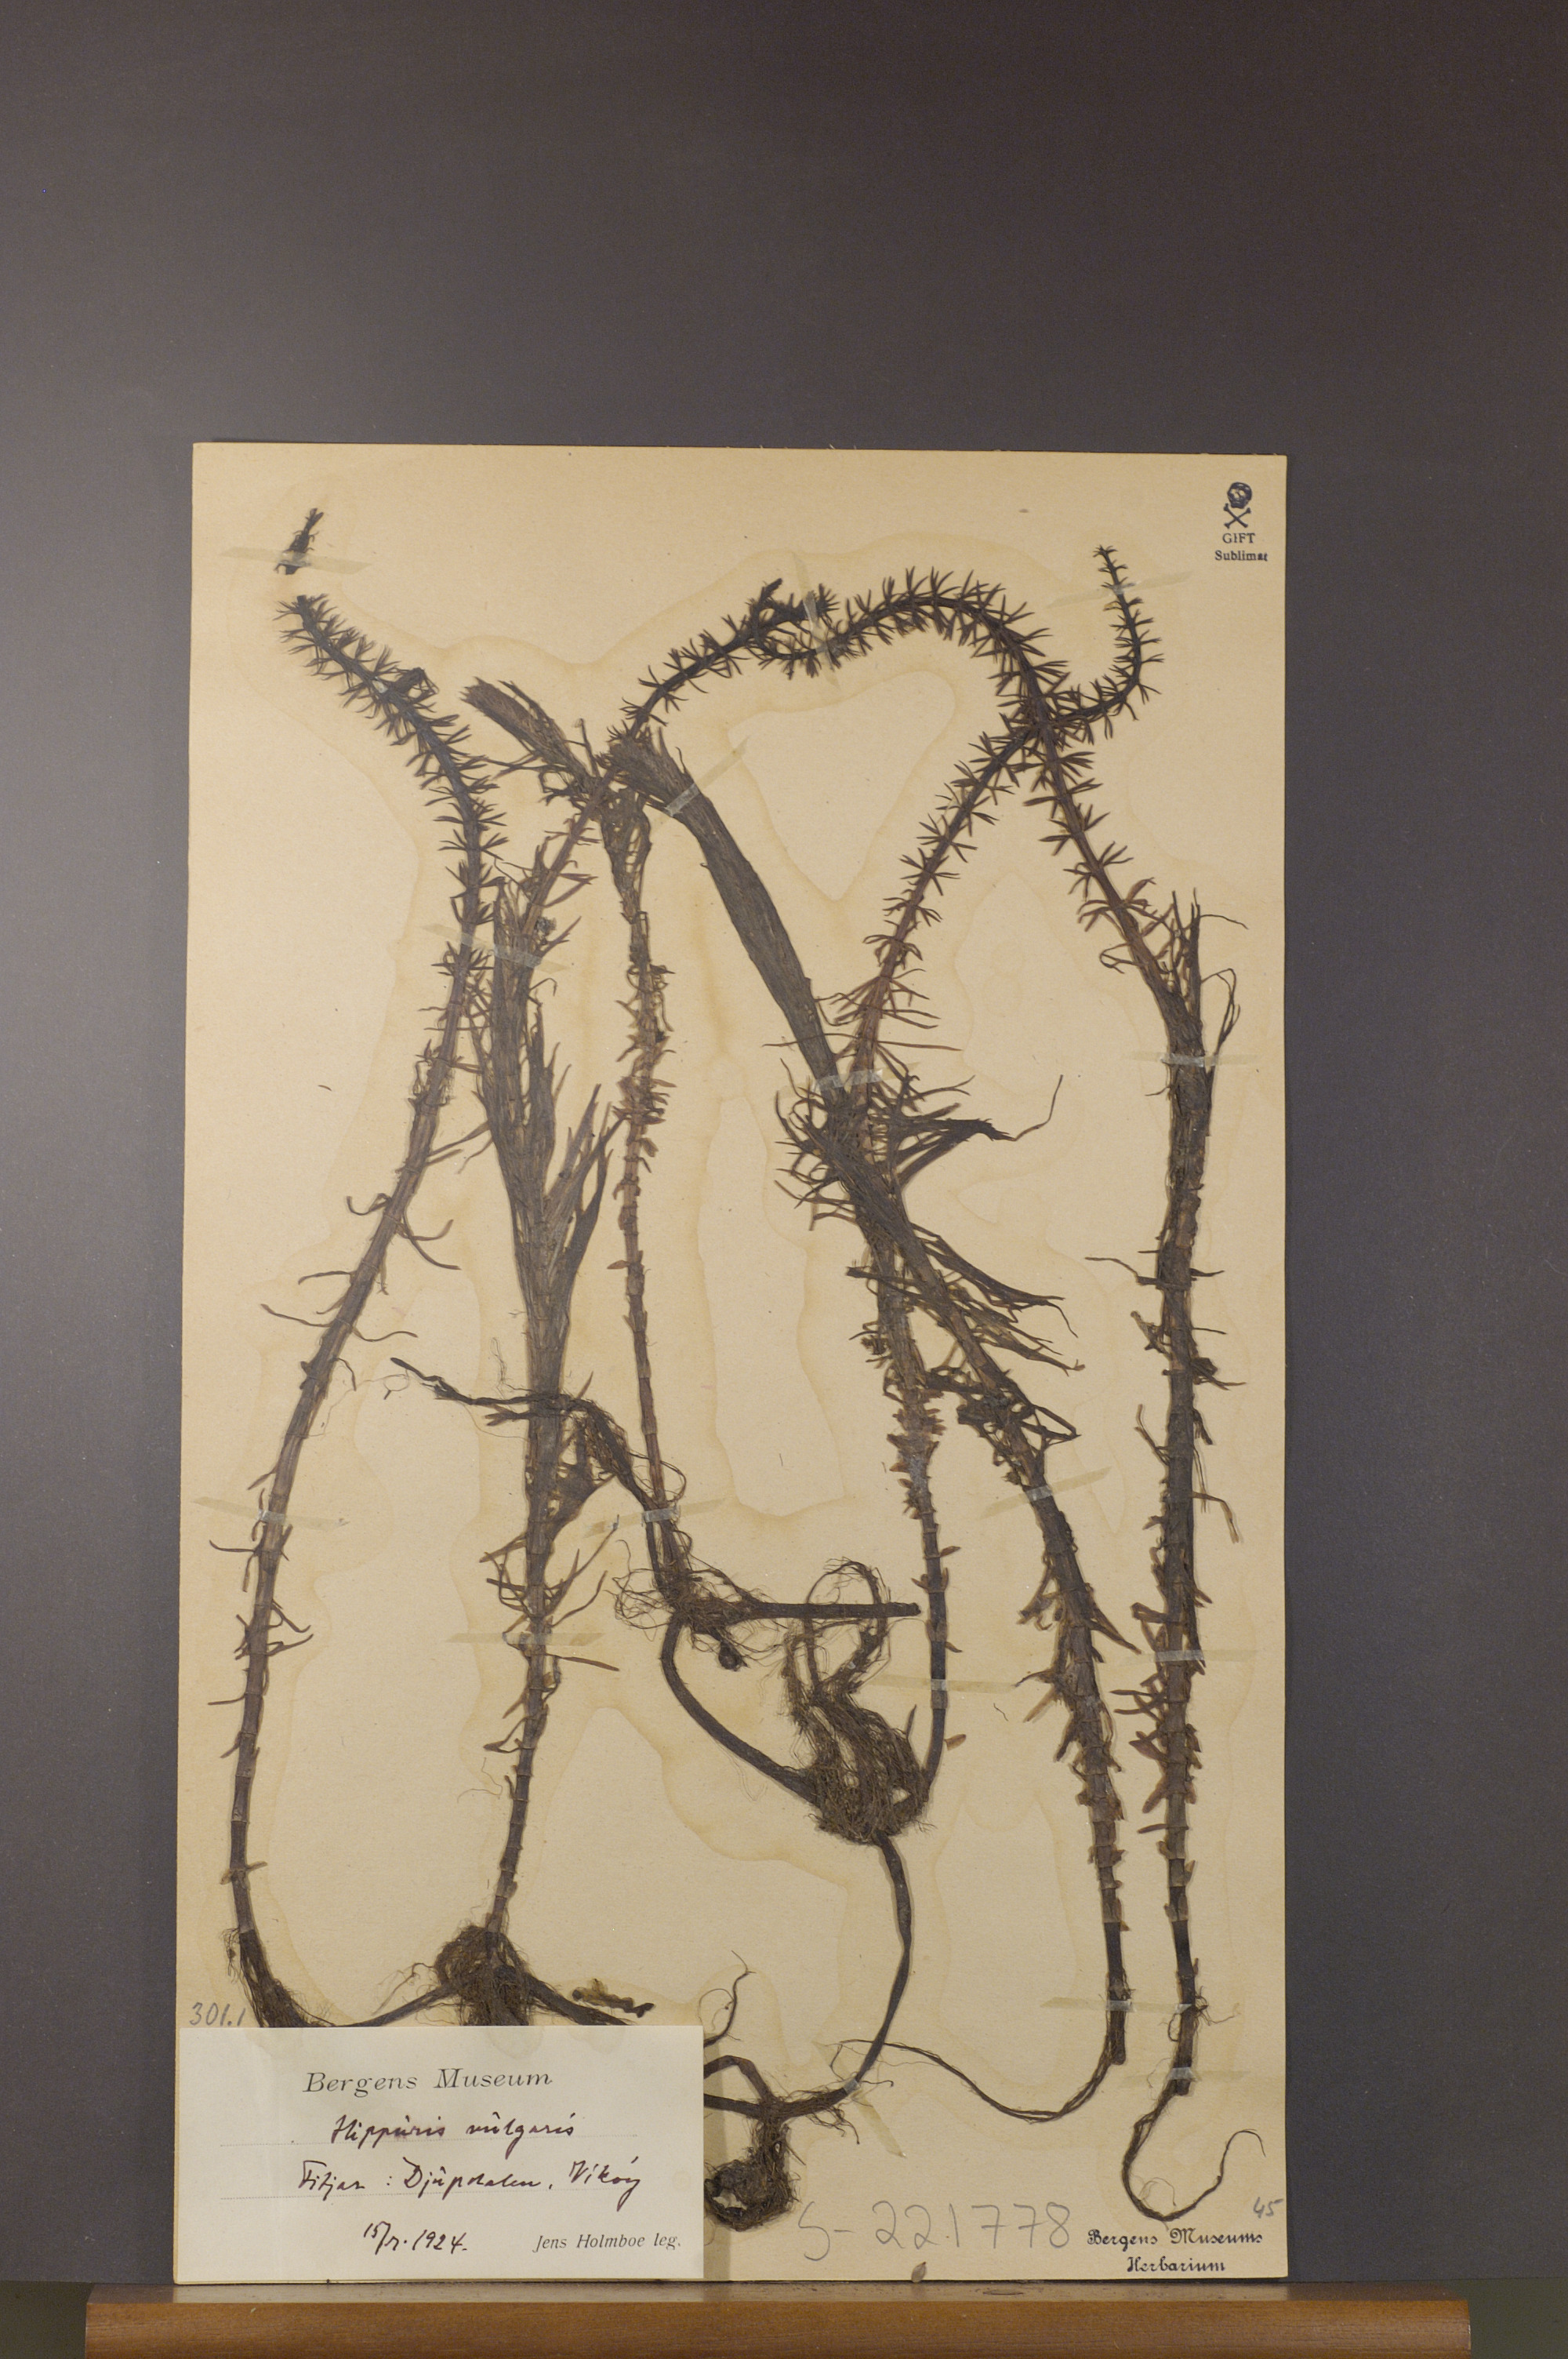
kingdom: Plantae
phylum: Tracheophyta
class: Magnoliopsida
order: Lamiales
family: Plantaginaceae
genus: Hippuris
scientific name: Hippuris vulgaris
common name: Mare's-tail
